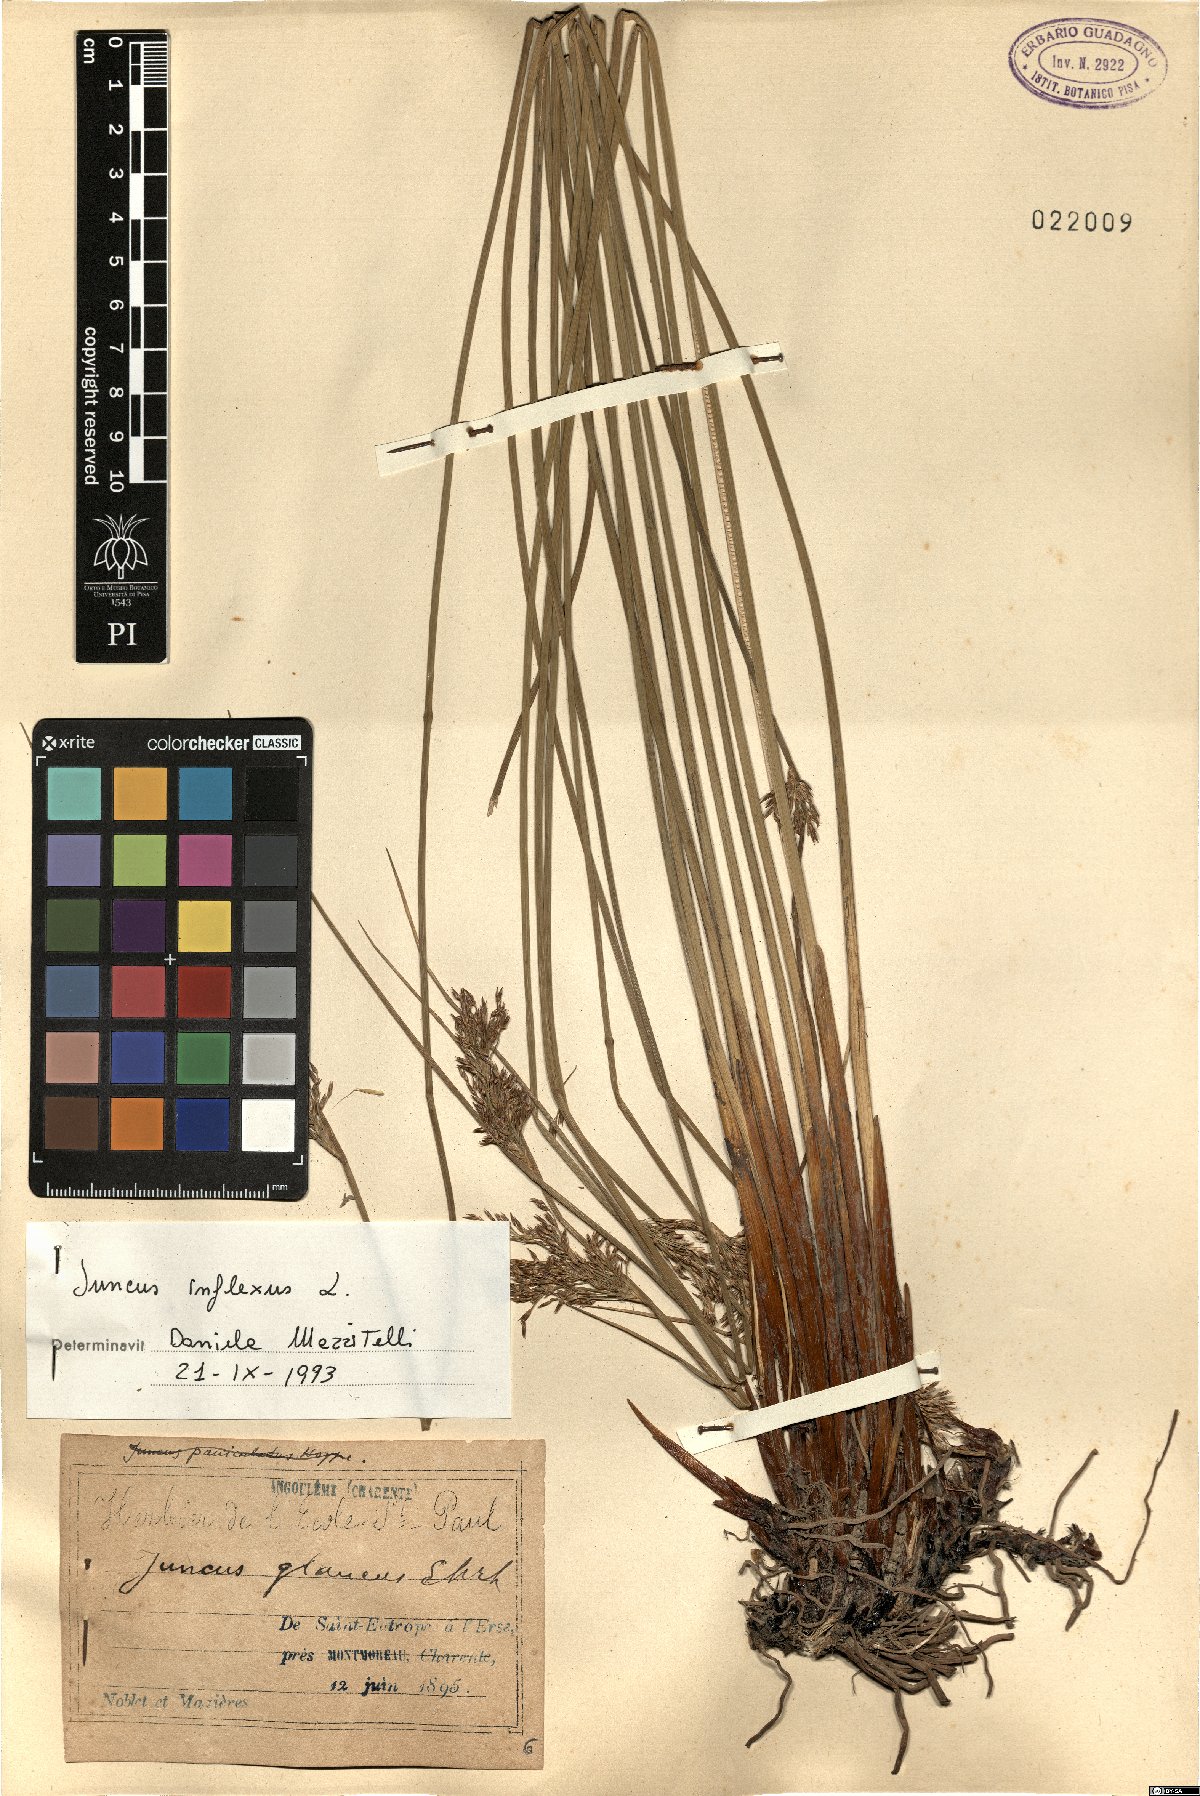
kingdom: Plantae
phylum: Tracheophyta
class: Liliopsida
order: Poales
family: Juncaceae
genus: Juncus
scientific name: Juncus inflexus
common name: Hard rush
